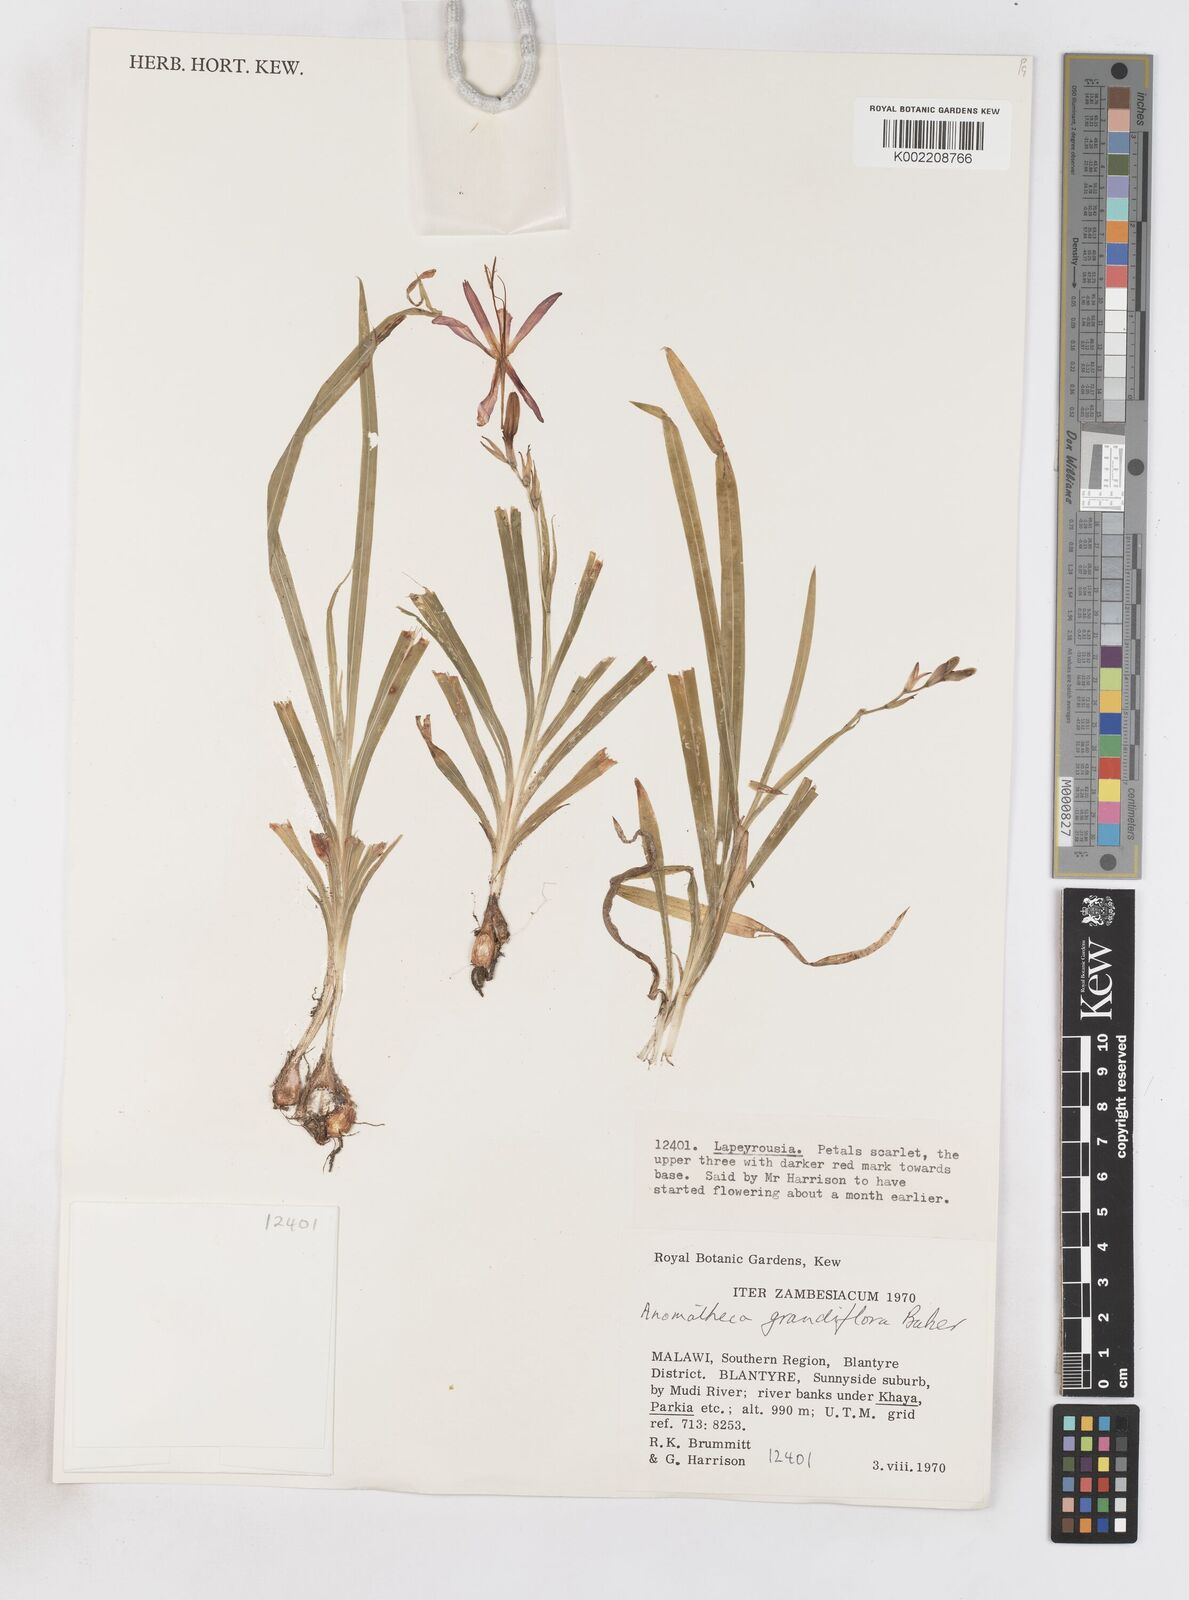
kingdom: Plantae
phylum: Tracheophyta
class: Liliopsida
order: Asparagales
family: Iridaceae
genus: Freesia
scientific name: Freesia grandiflora
